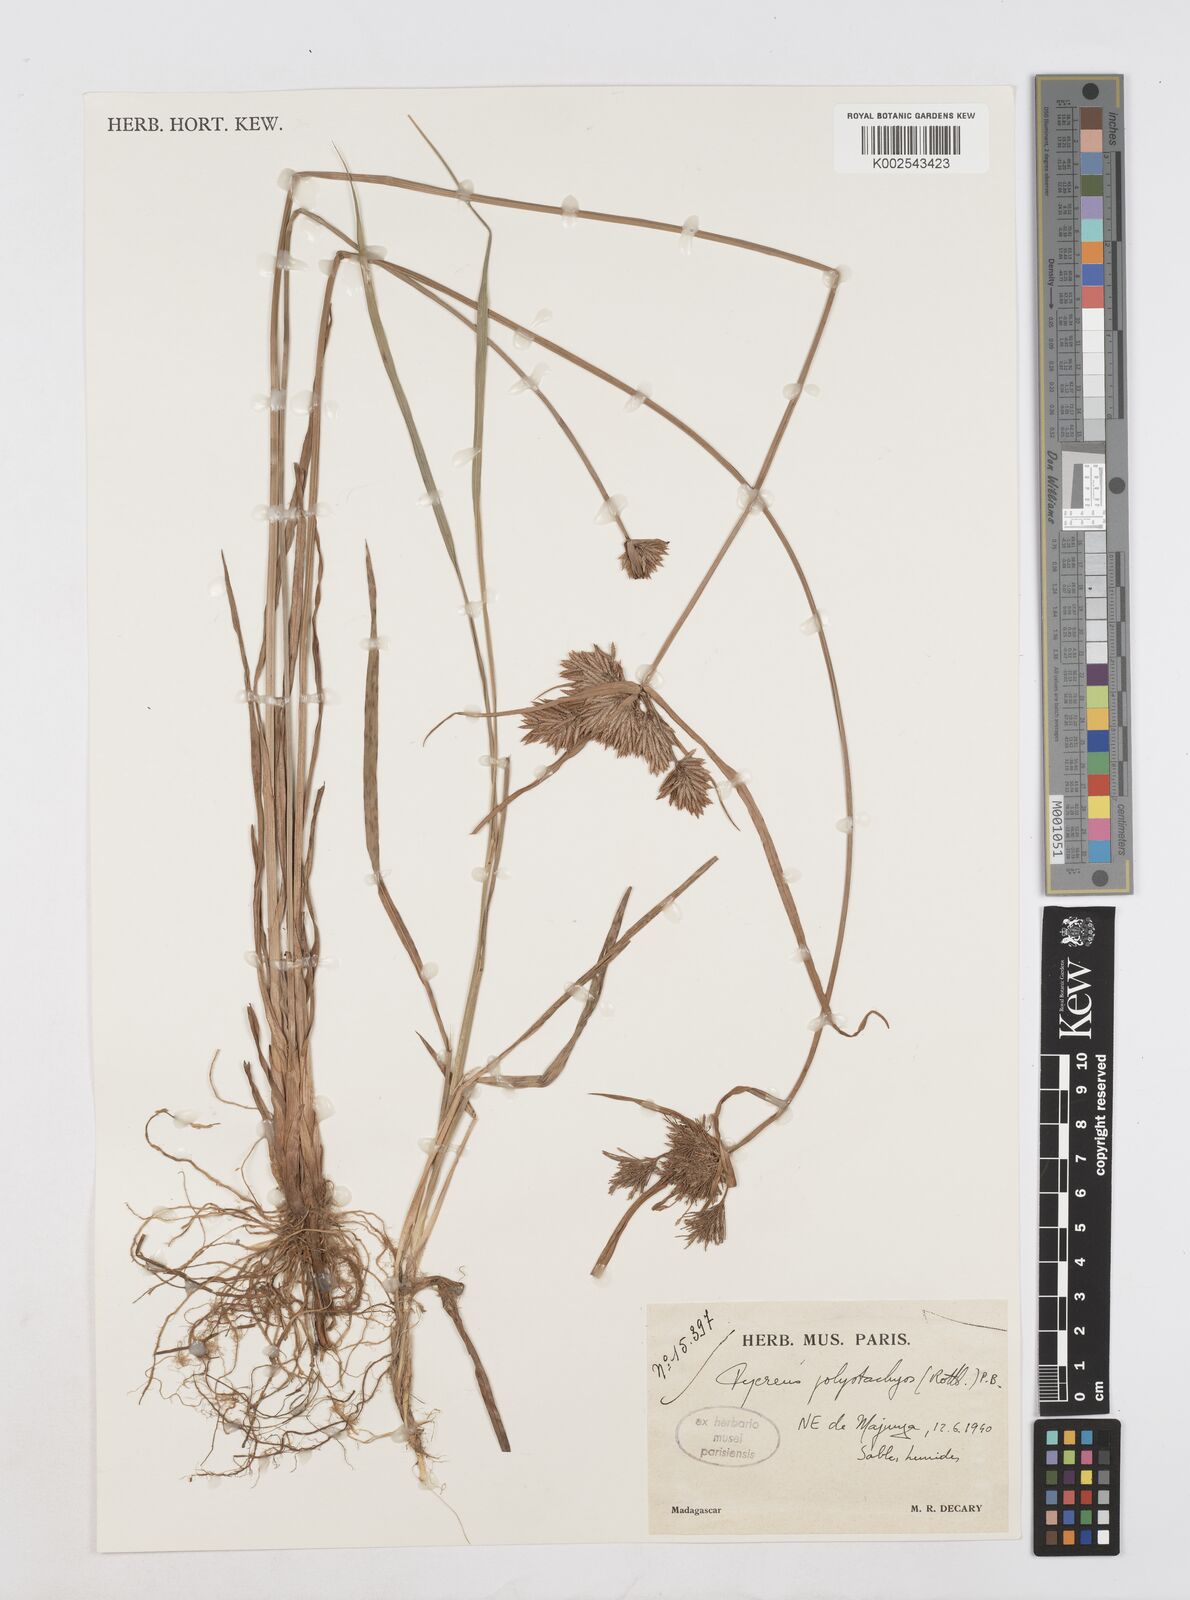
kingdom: Plantae
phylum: Tracheophyta
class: Liliopsida
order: Poales
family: Cyperaceae
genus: Cyperus
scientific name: Cyperus polystachyos
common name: Bunchy flat sedge
